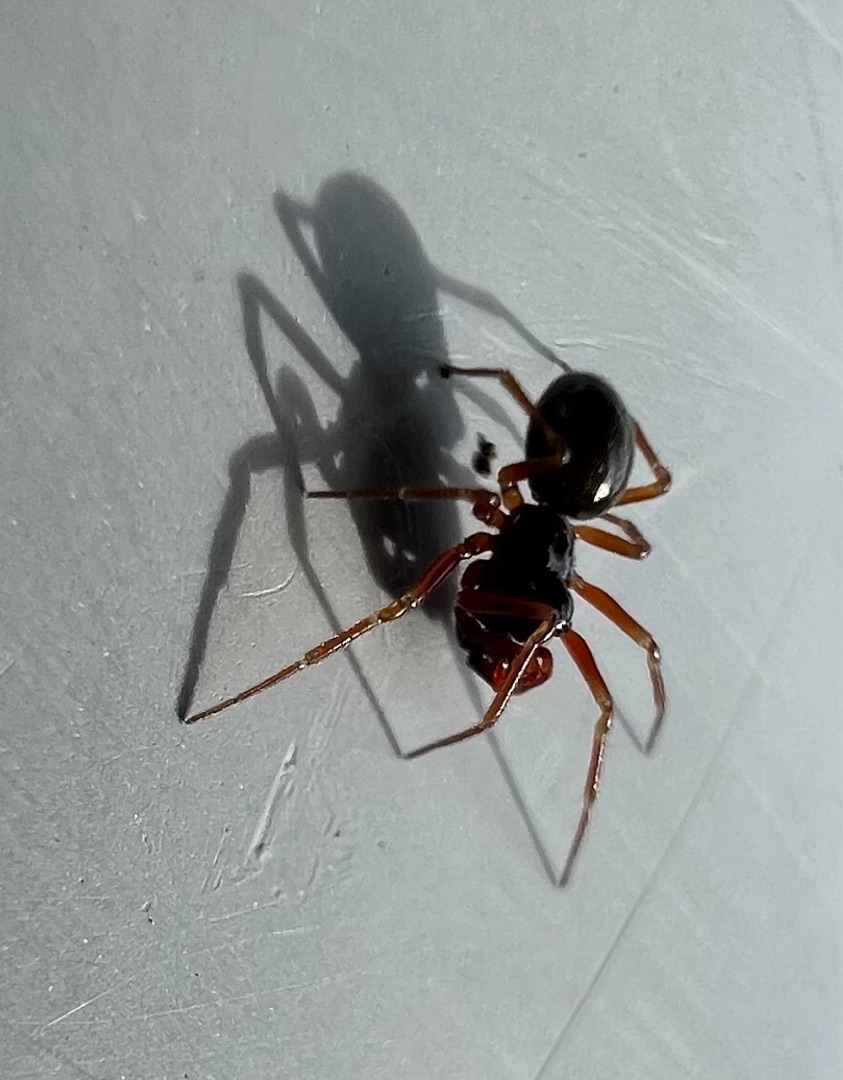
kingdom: Animalia
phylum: Arthropoda
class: Arachnida
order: Araneae
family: Linyphiidae
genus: Erigone
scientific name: Erigone
